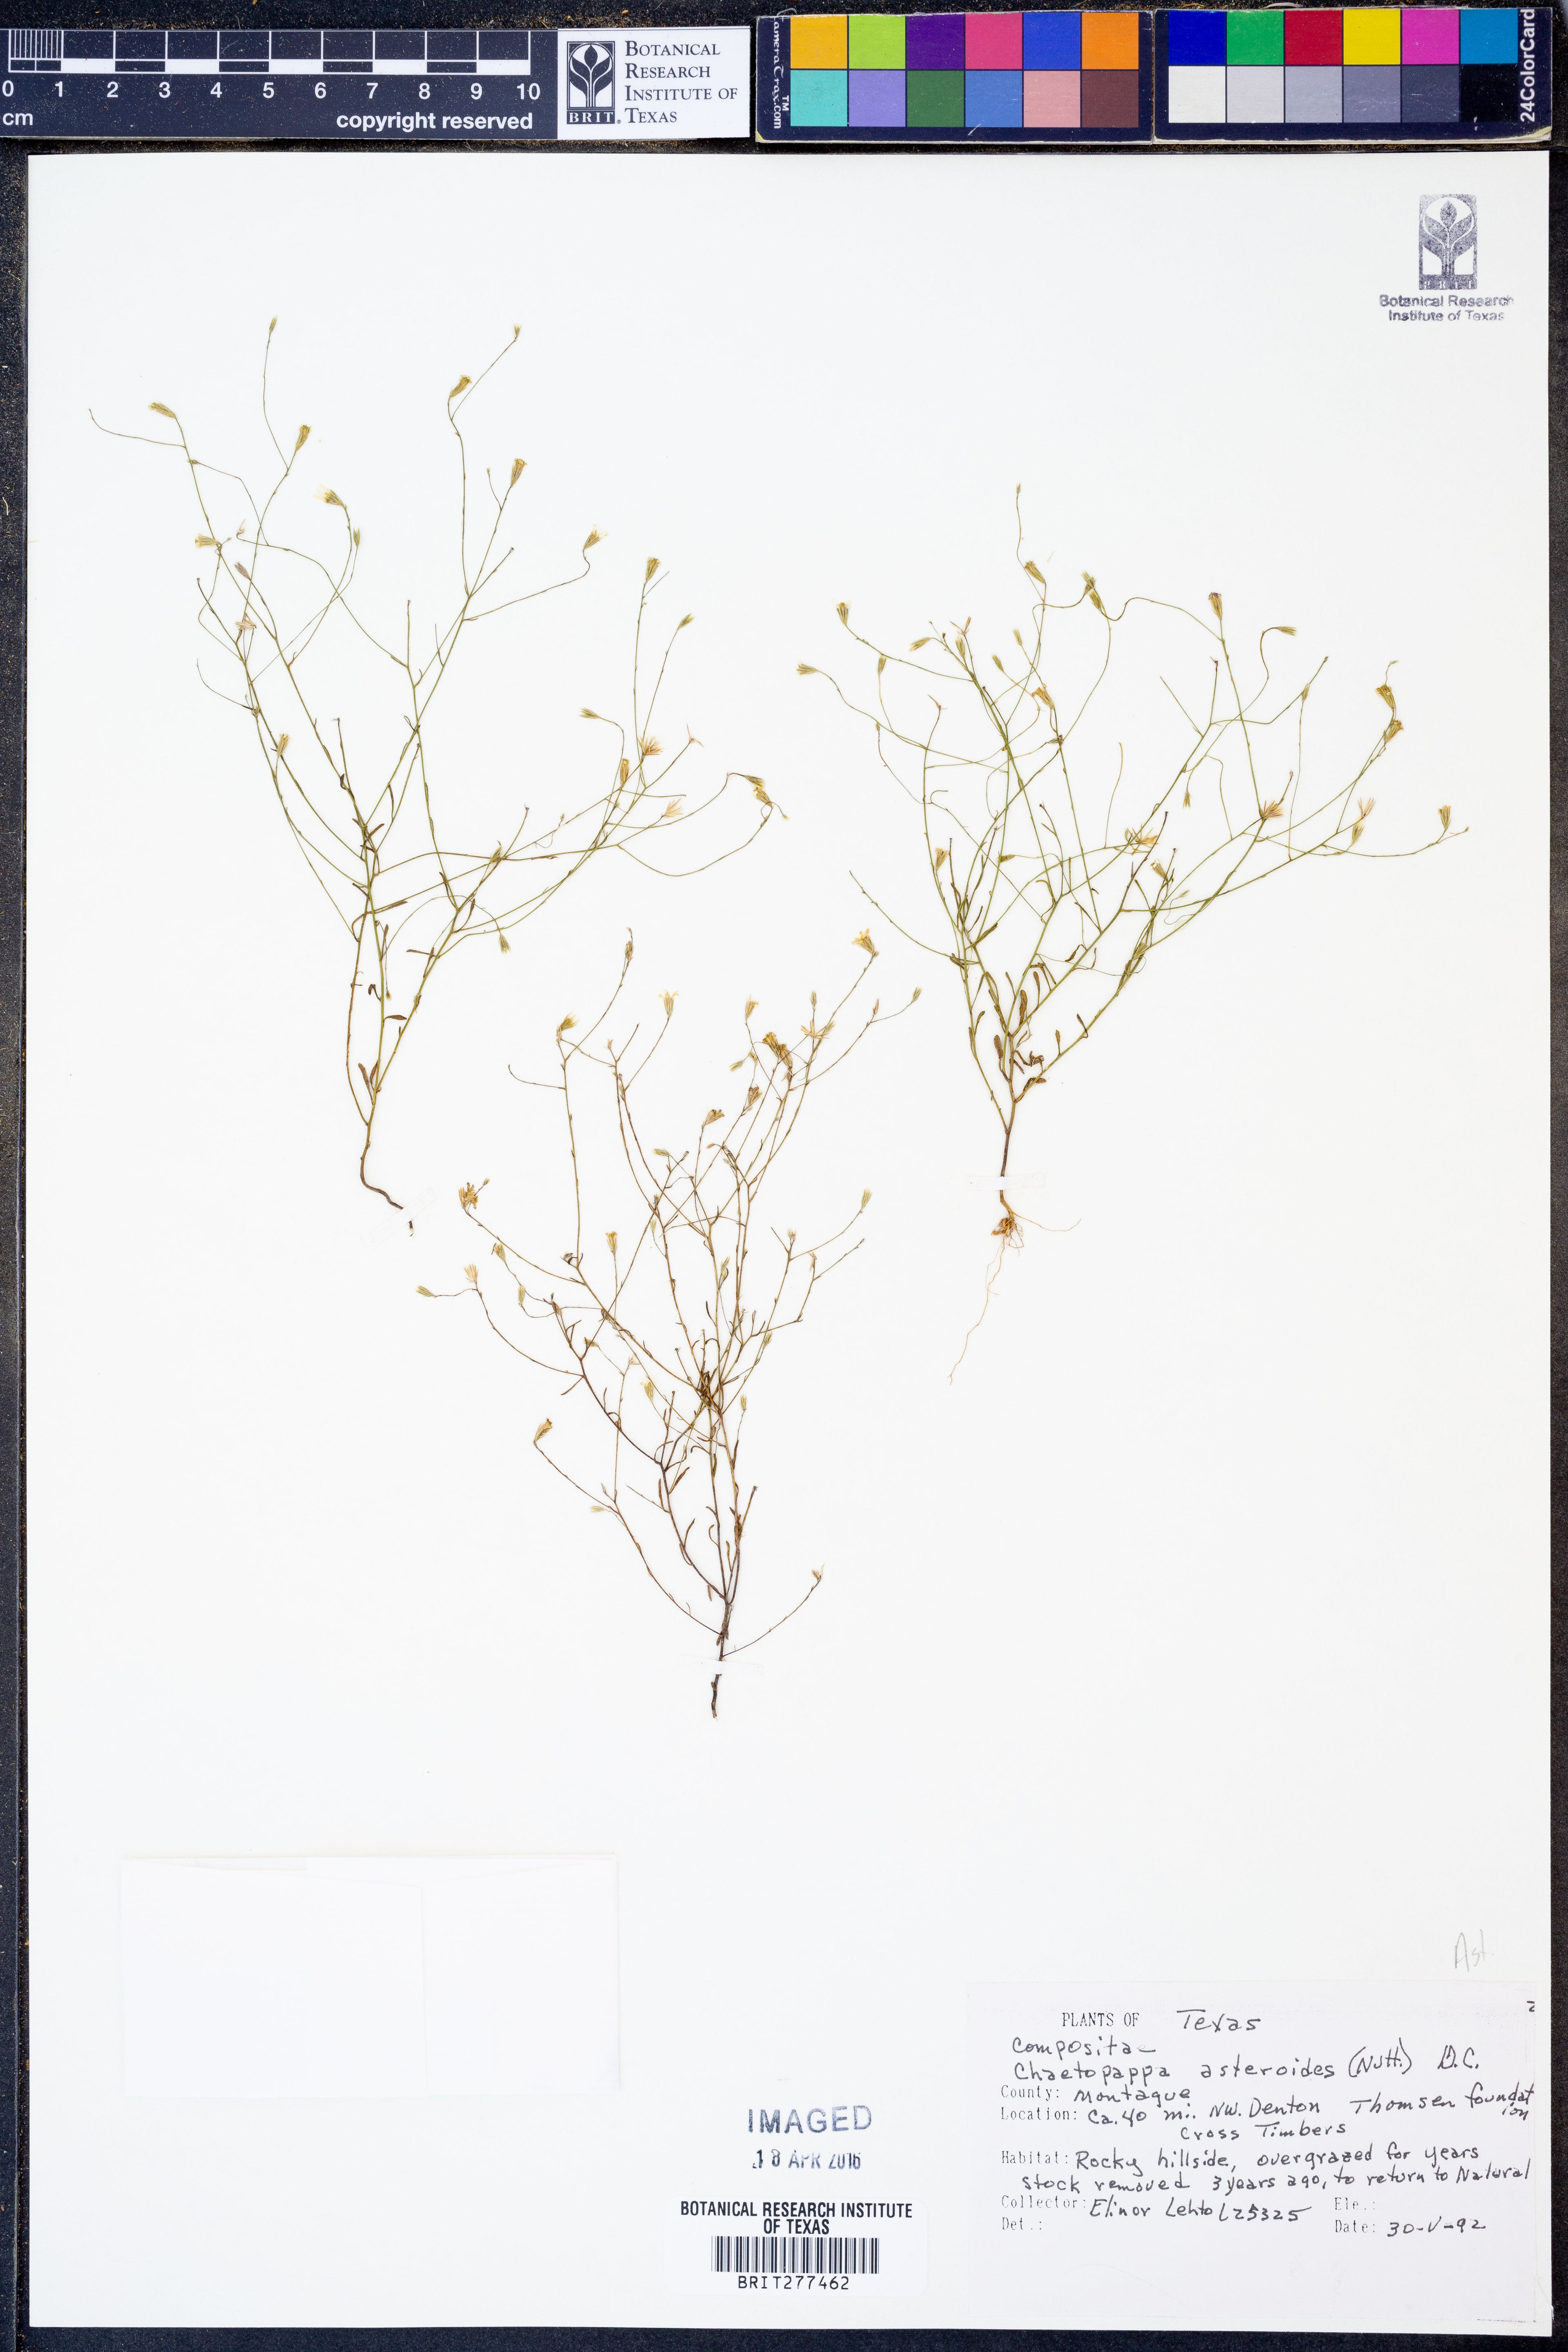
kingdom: Plantae
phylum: Tracheophyta
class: Magnoliopsida
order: Asterales
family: Asteraceae
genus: Chaetopappa
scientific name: Chaetopappa asteroides
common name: Tiny lazy daisy
